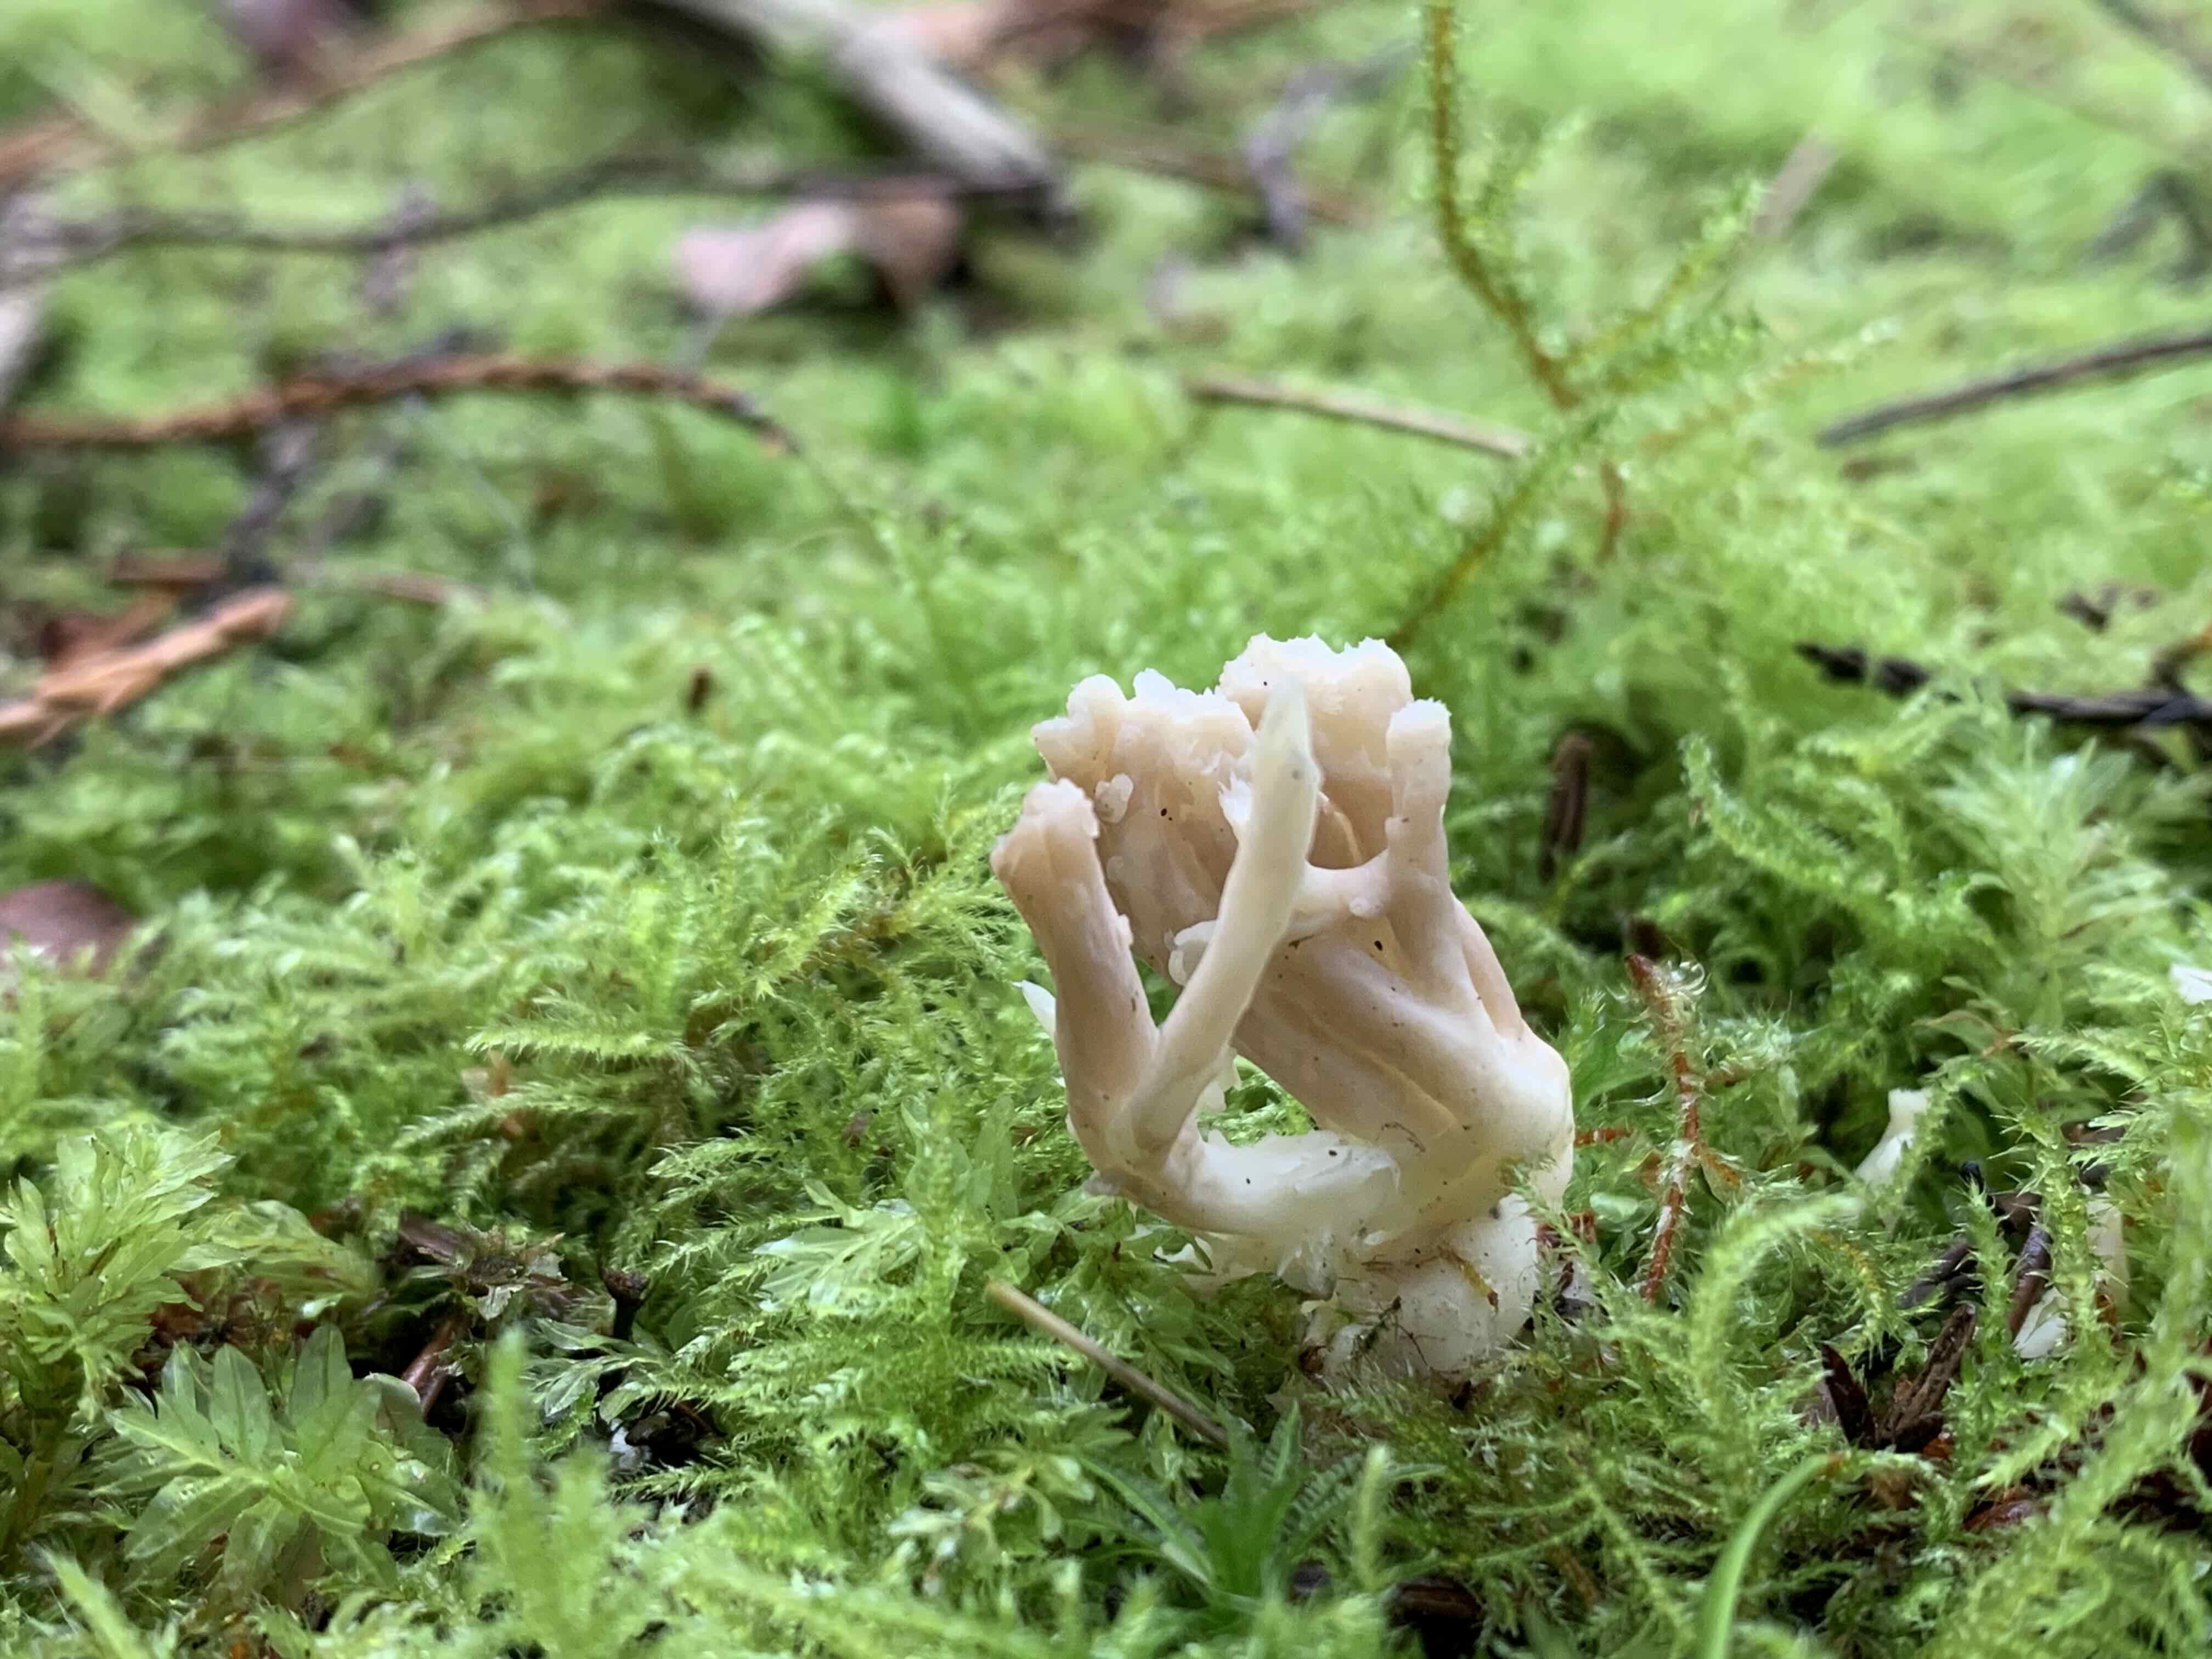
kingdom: Fungi
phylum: Basidiomycota
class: Agaricomycetes
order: Cantharellales
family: Hydnaceae
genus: Clavulina
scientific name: Clavulina
